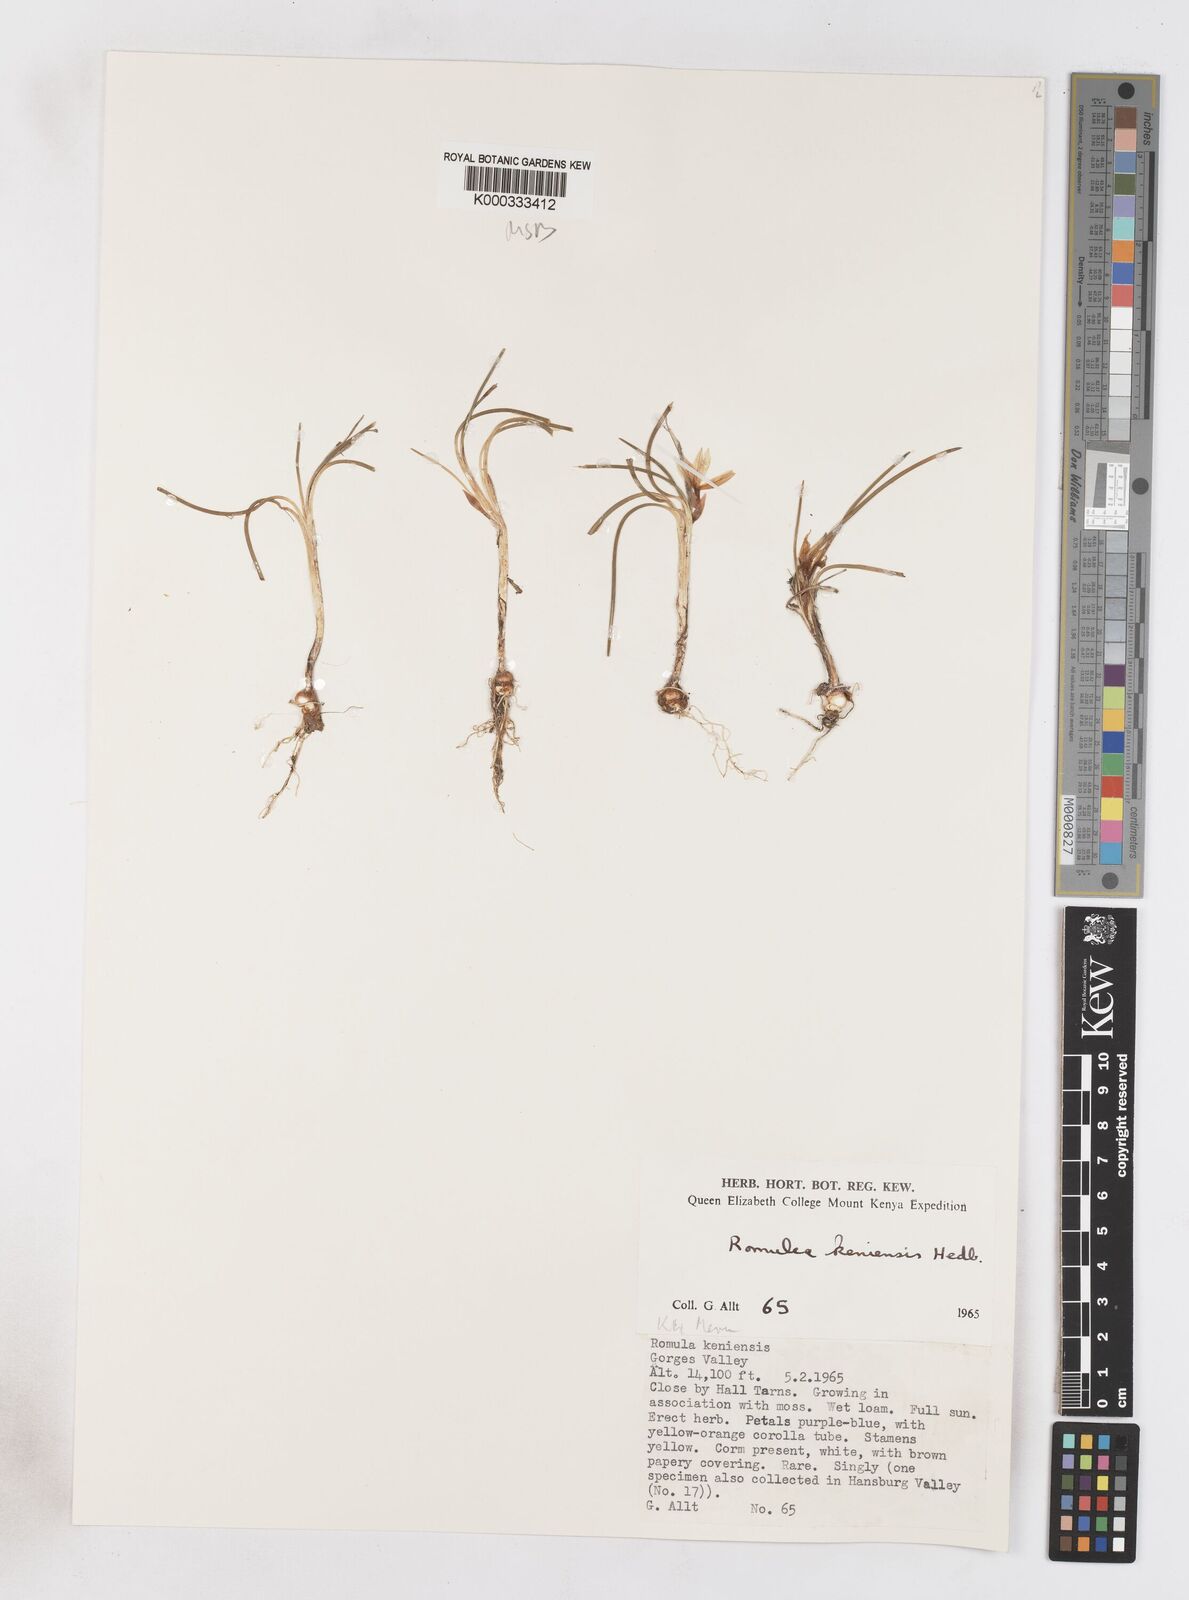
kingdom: Plantae
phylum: Tracheophyta
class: Liliopsida
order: Asparagales
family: Iridaceae
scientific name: Iridaceae
